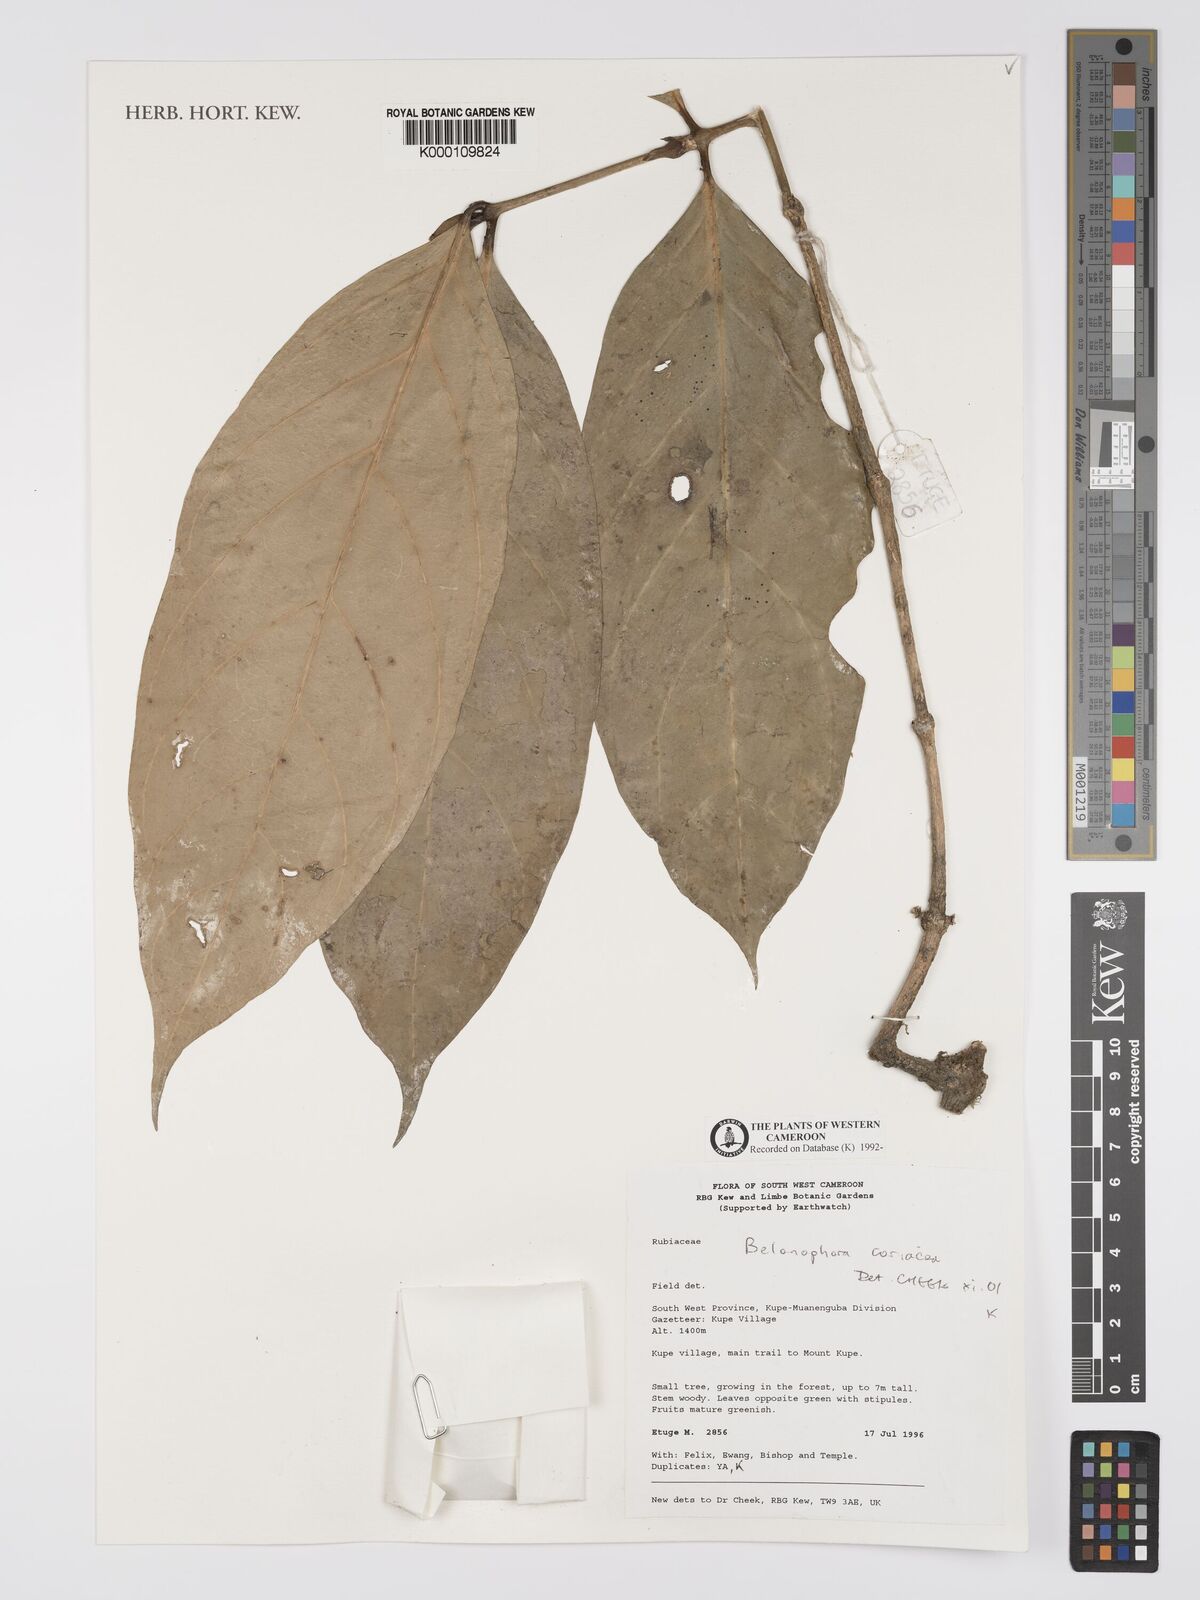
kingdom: Plantae
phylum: Tracheophyta
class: Magnoliopsida
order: Gentianales
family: Rubiaceae
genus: Belonophora
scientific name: Belonophora coriacea
